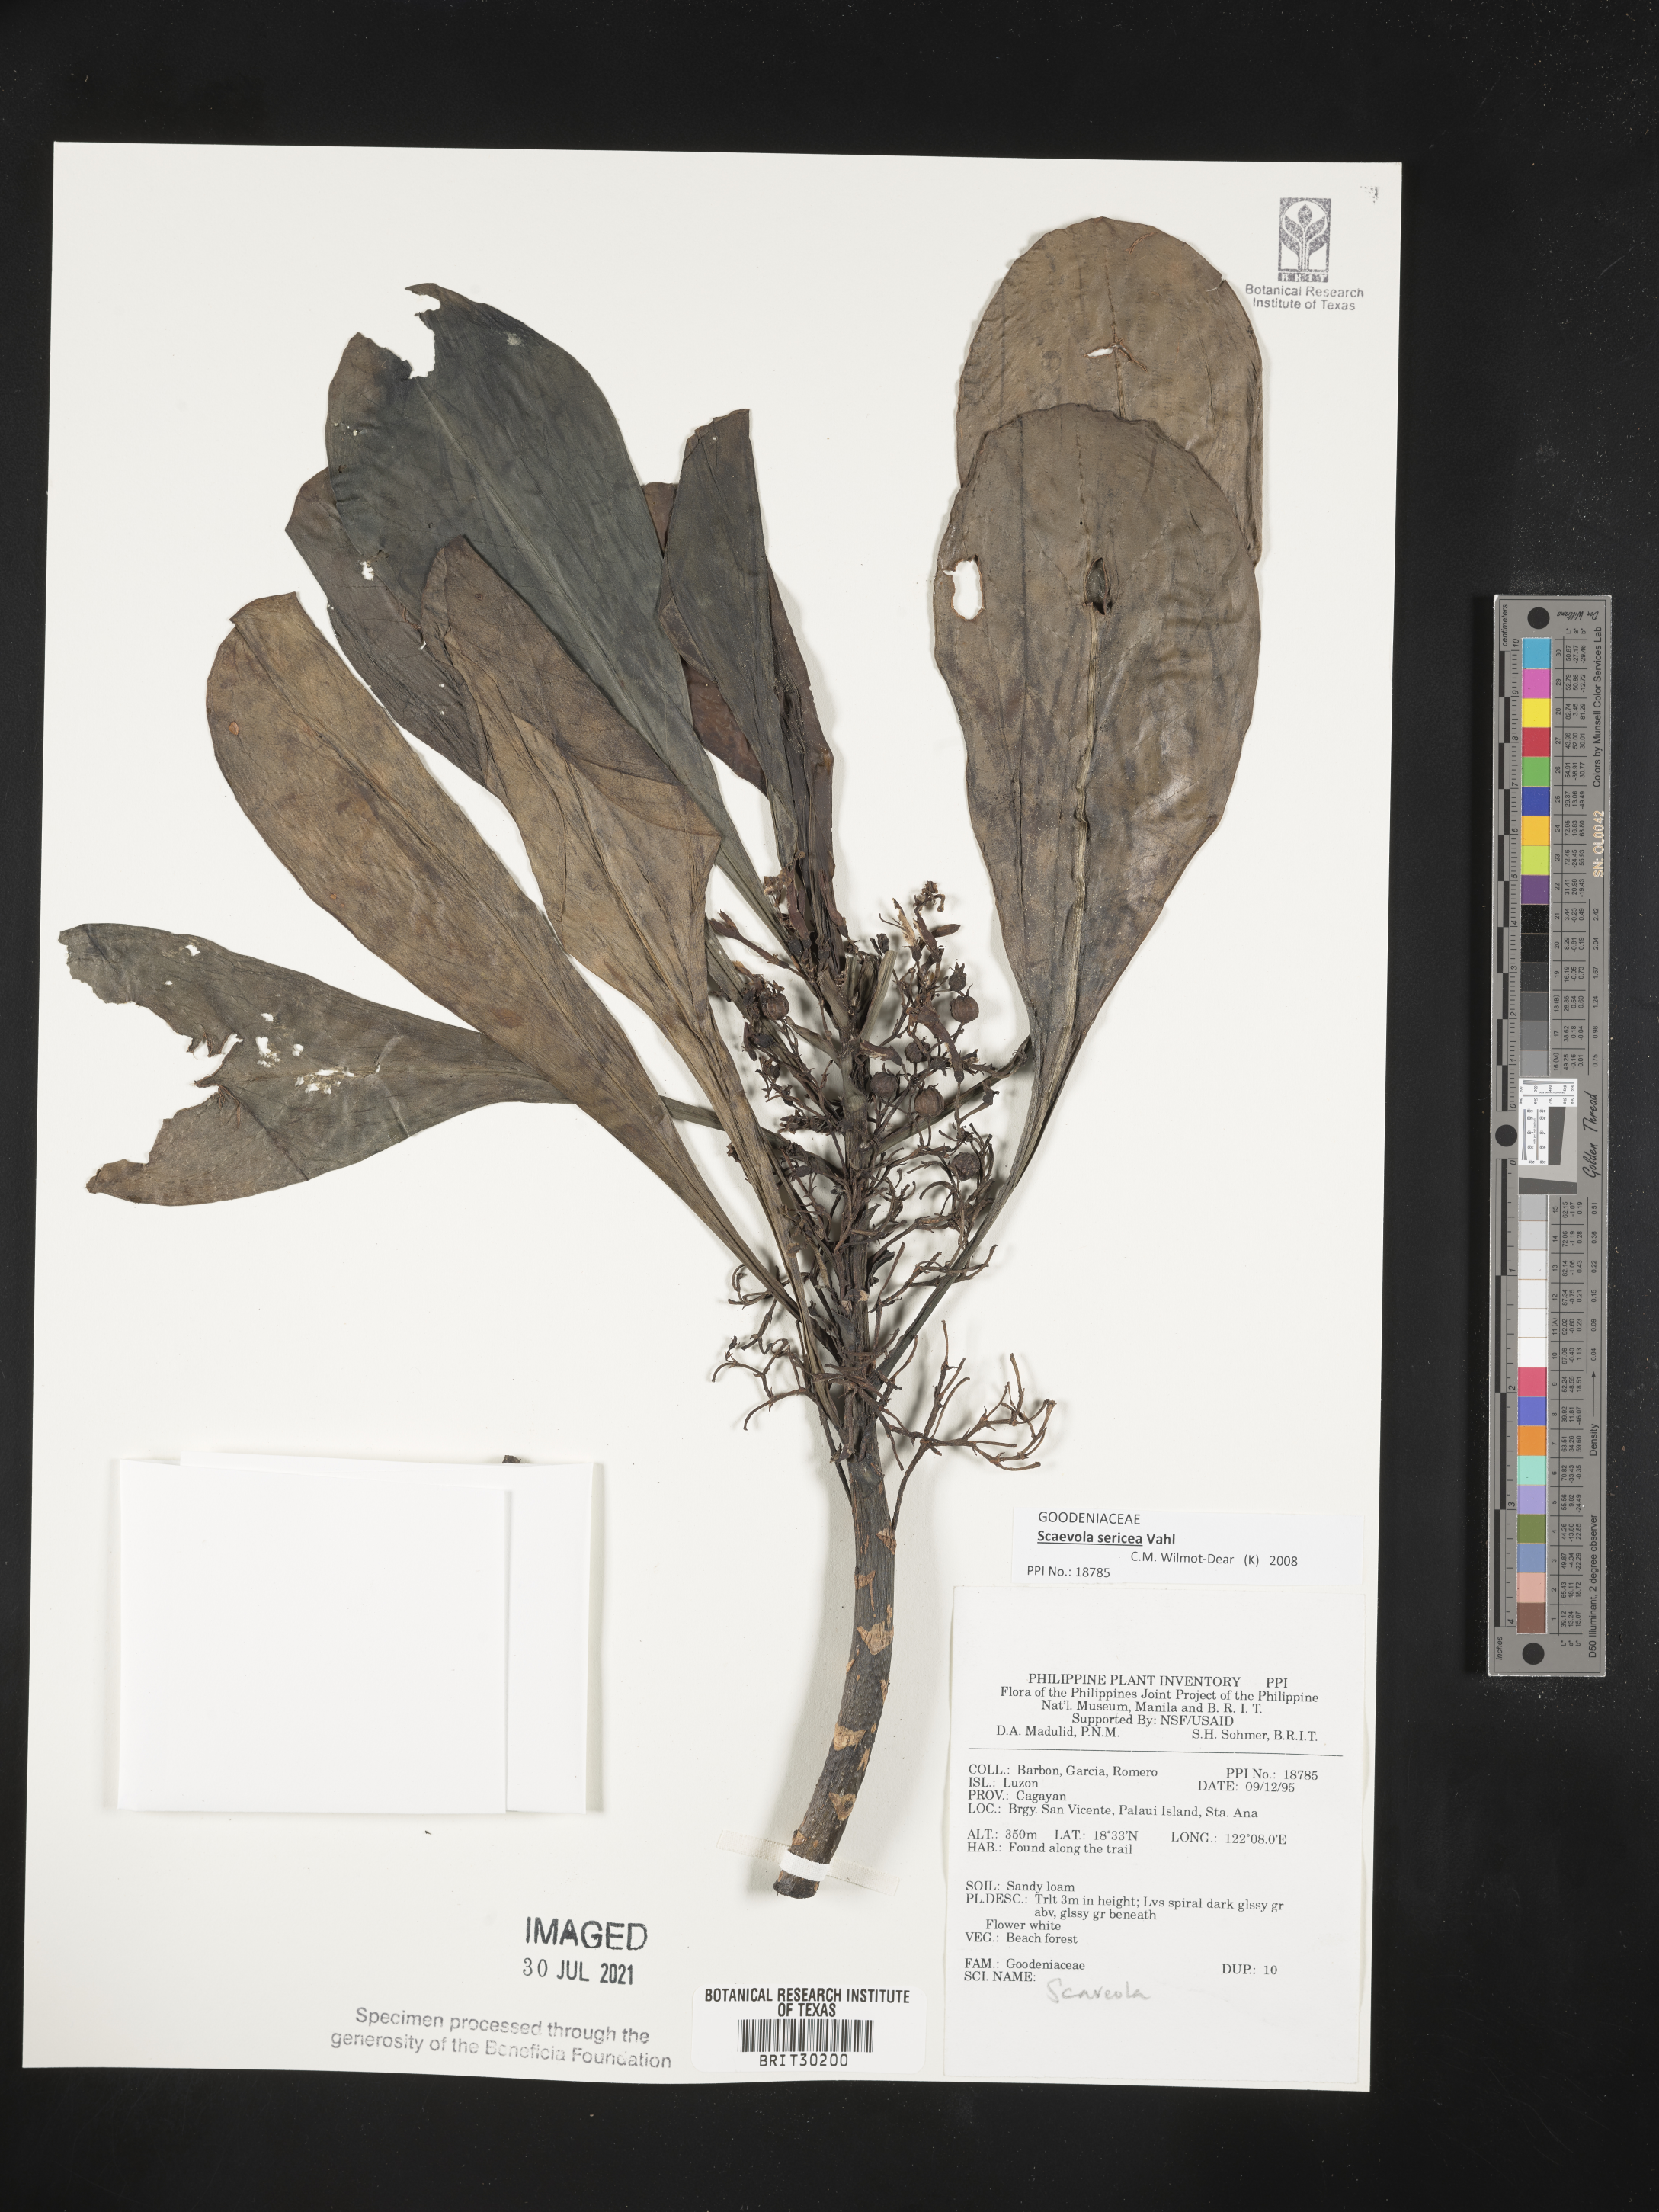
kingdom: Plantae
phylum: Tracheophyta
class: Magnoliopsida
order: Asterales
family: Goodeniaceae
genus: Scaevola
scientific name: Scaevola
